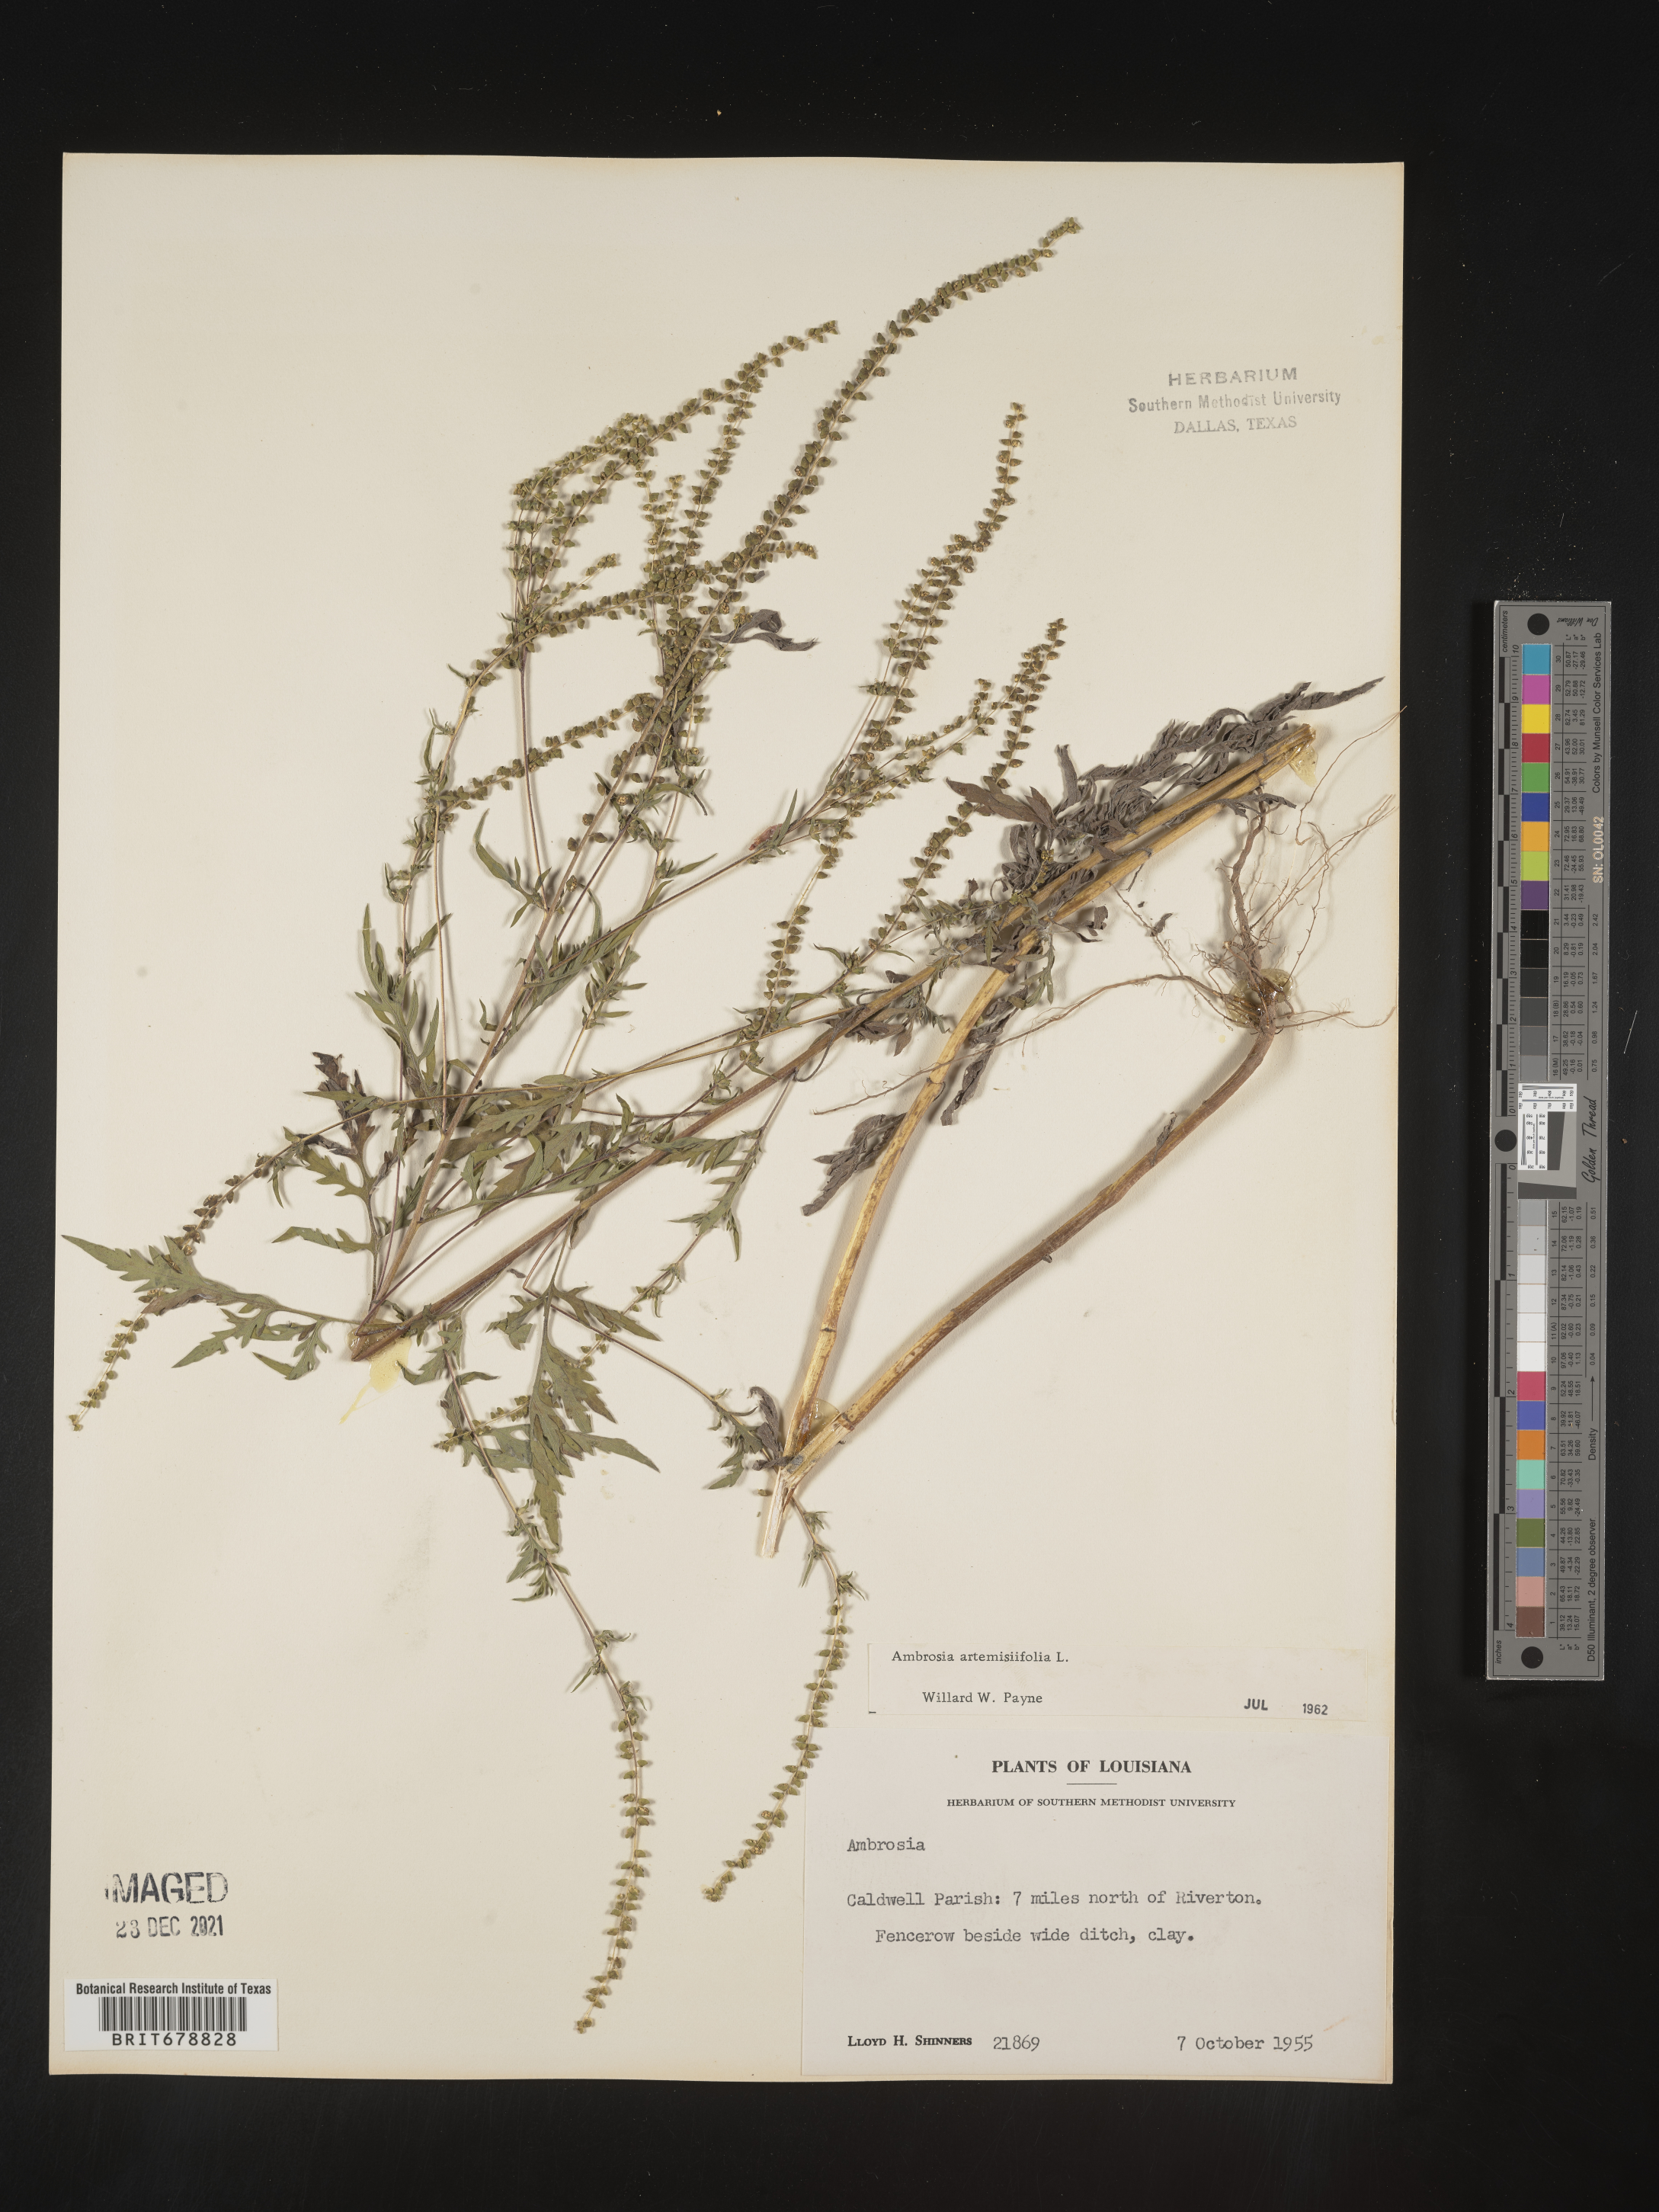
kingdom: Plantae
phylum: Tracheophyta
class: Magnoliopsida
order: Asterales
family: Asteraceae
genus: Ambrosia
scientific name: Ambrosia artemisiifolia
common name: Annual ragweed
